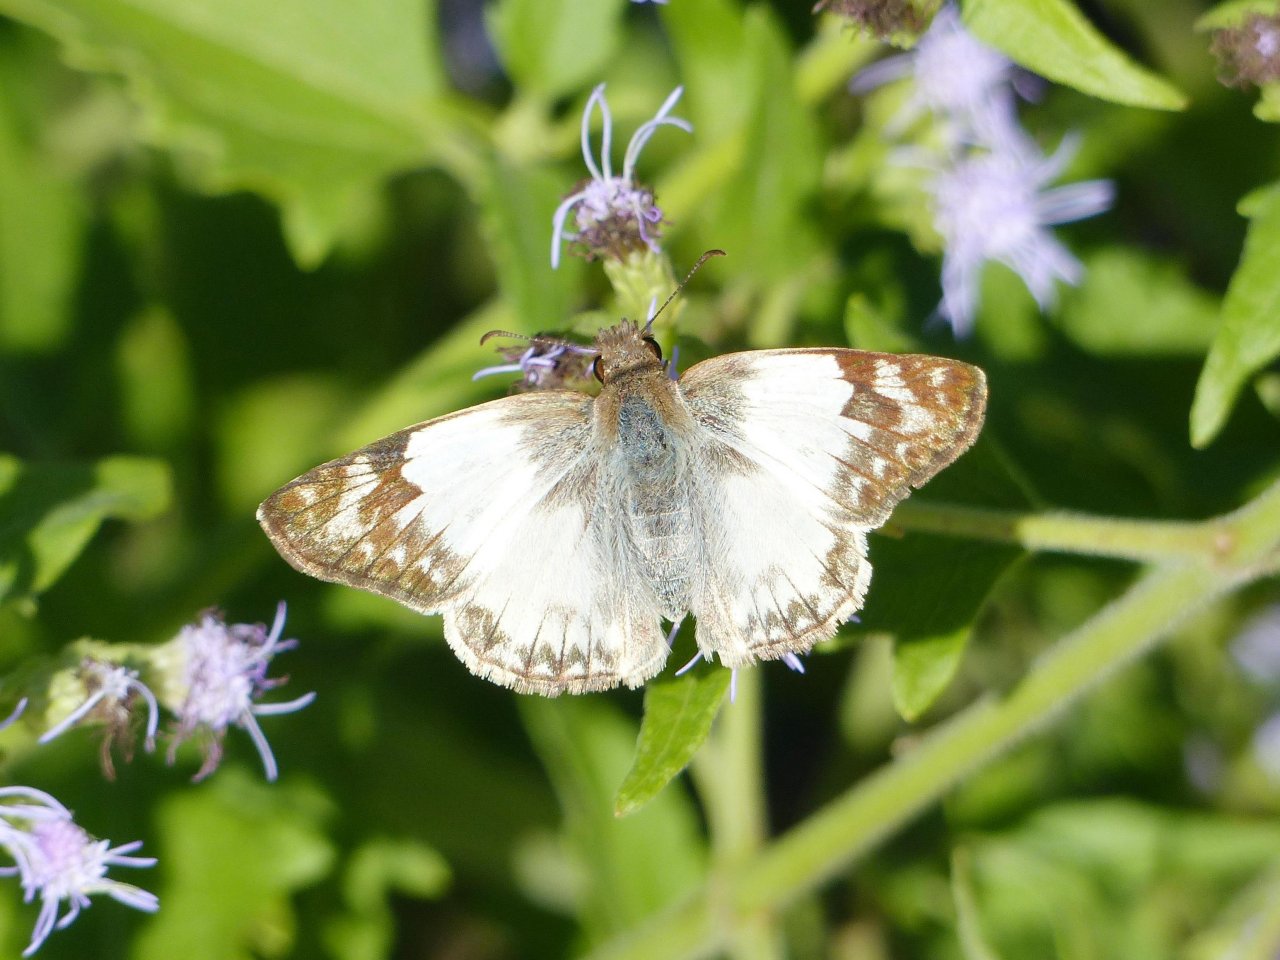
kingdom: Animalia
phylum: Arthropoda
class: Insecta
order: Lepidoptera
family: Hesperiidae
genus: Heliopetes
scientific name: Heliopetes laviana
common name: Laviana White-Skipper
